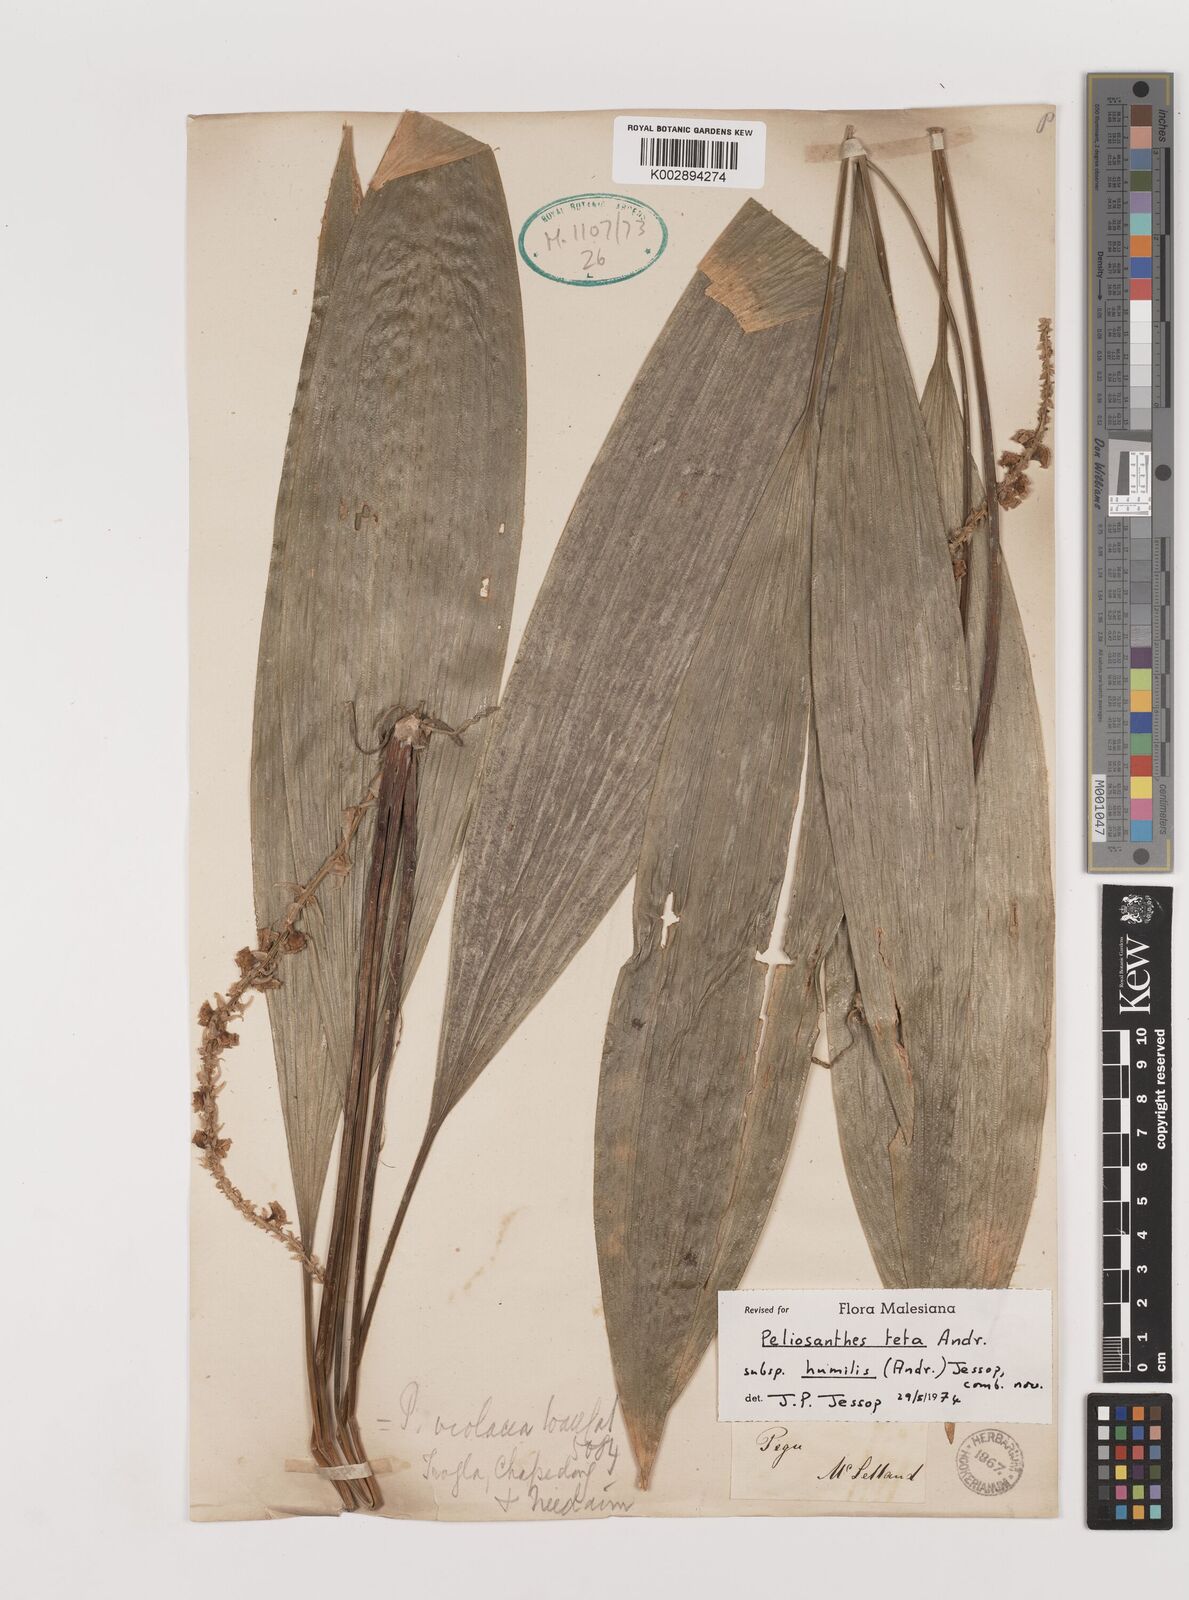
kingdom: Plantae
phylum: Tracheophyta
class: Liliopsida
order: Asparagales
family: Asparagaceae
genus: Peliosanthes
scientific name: Peliosanthes teta
